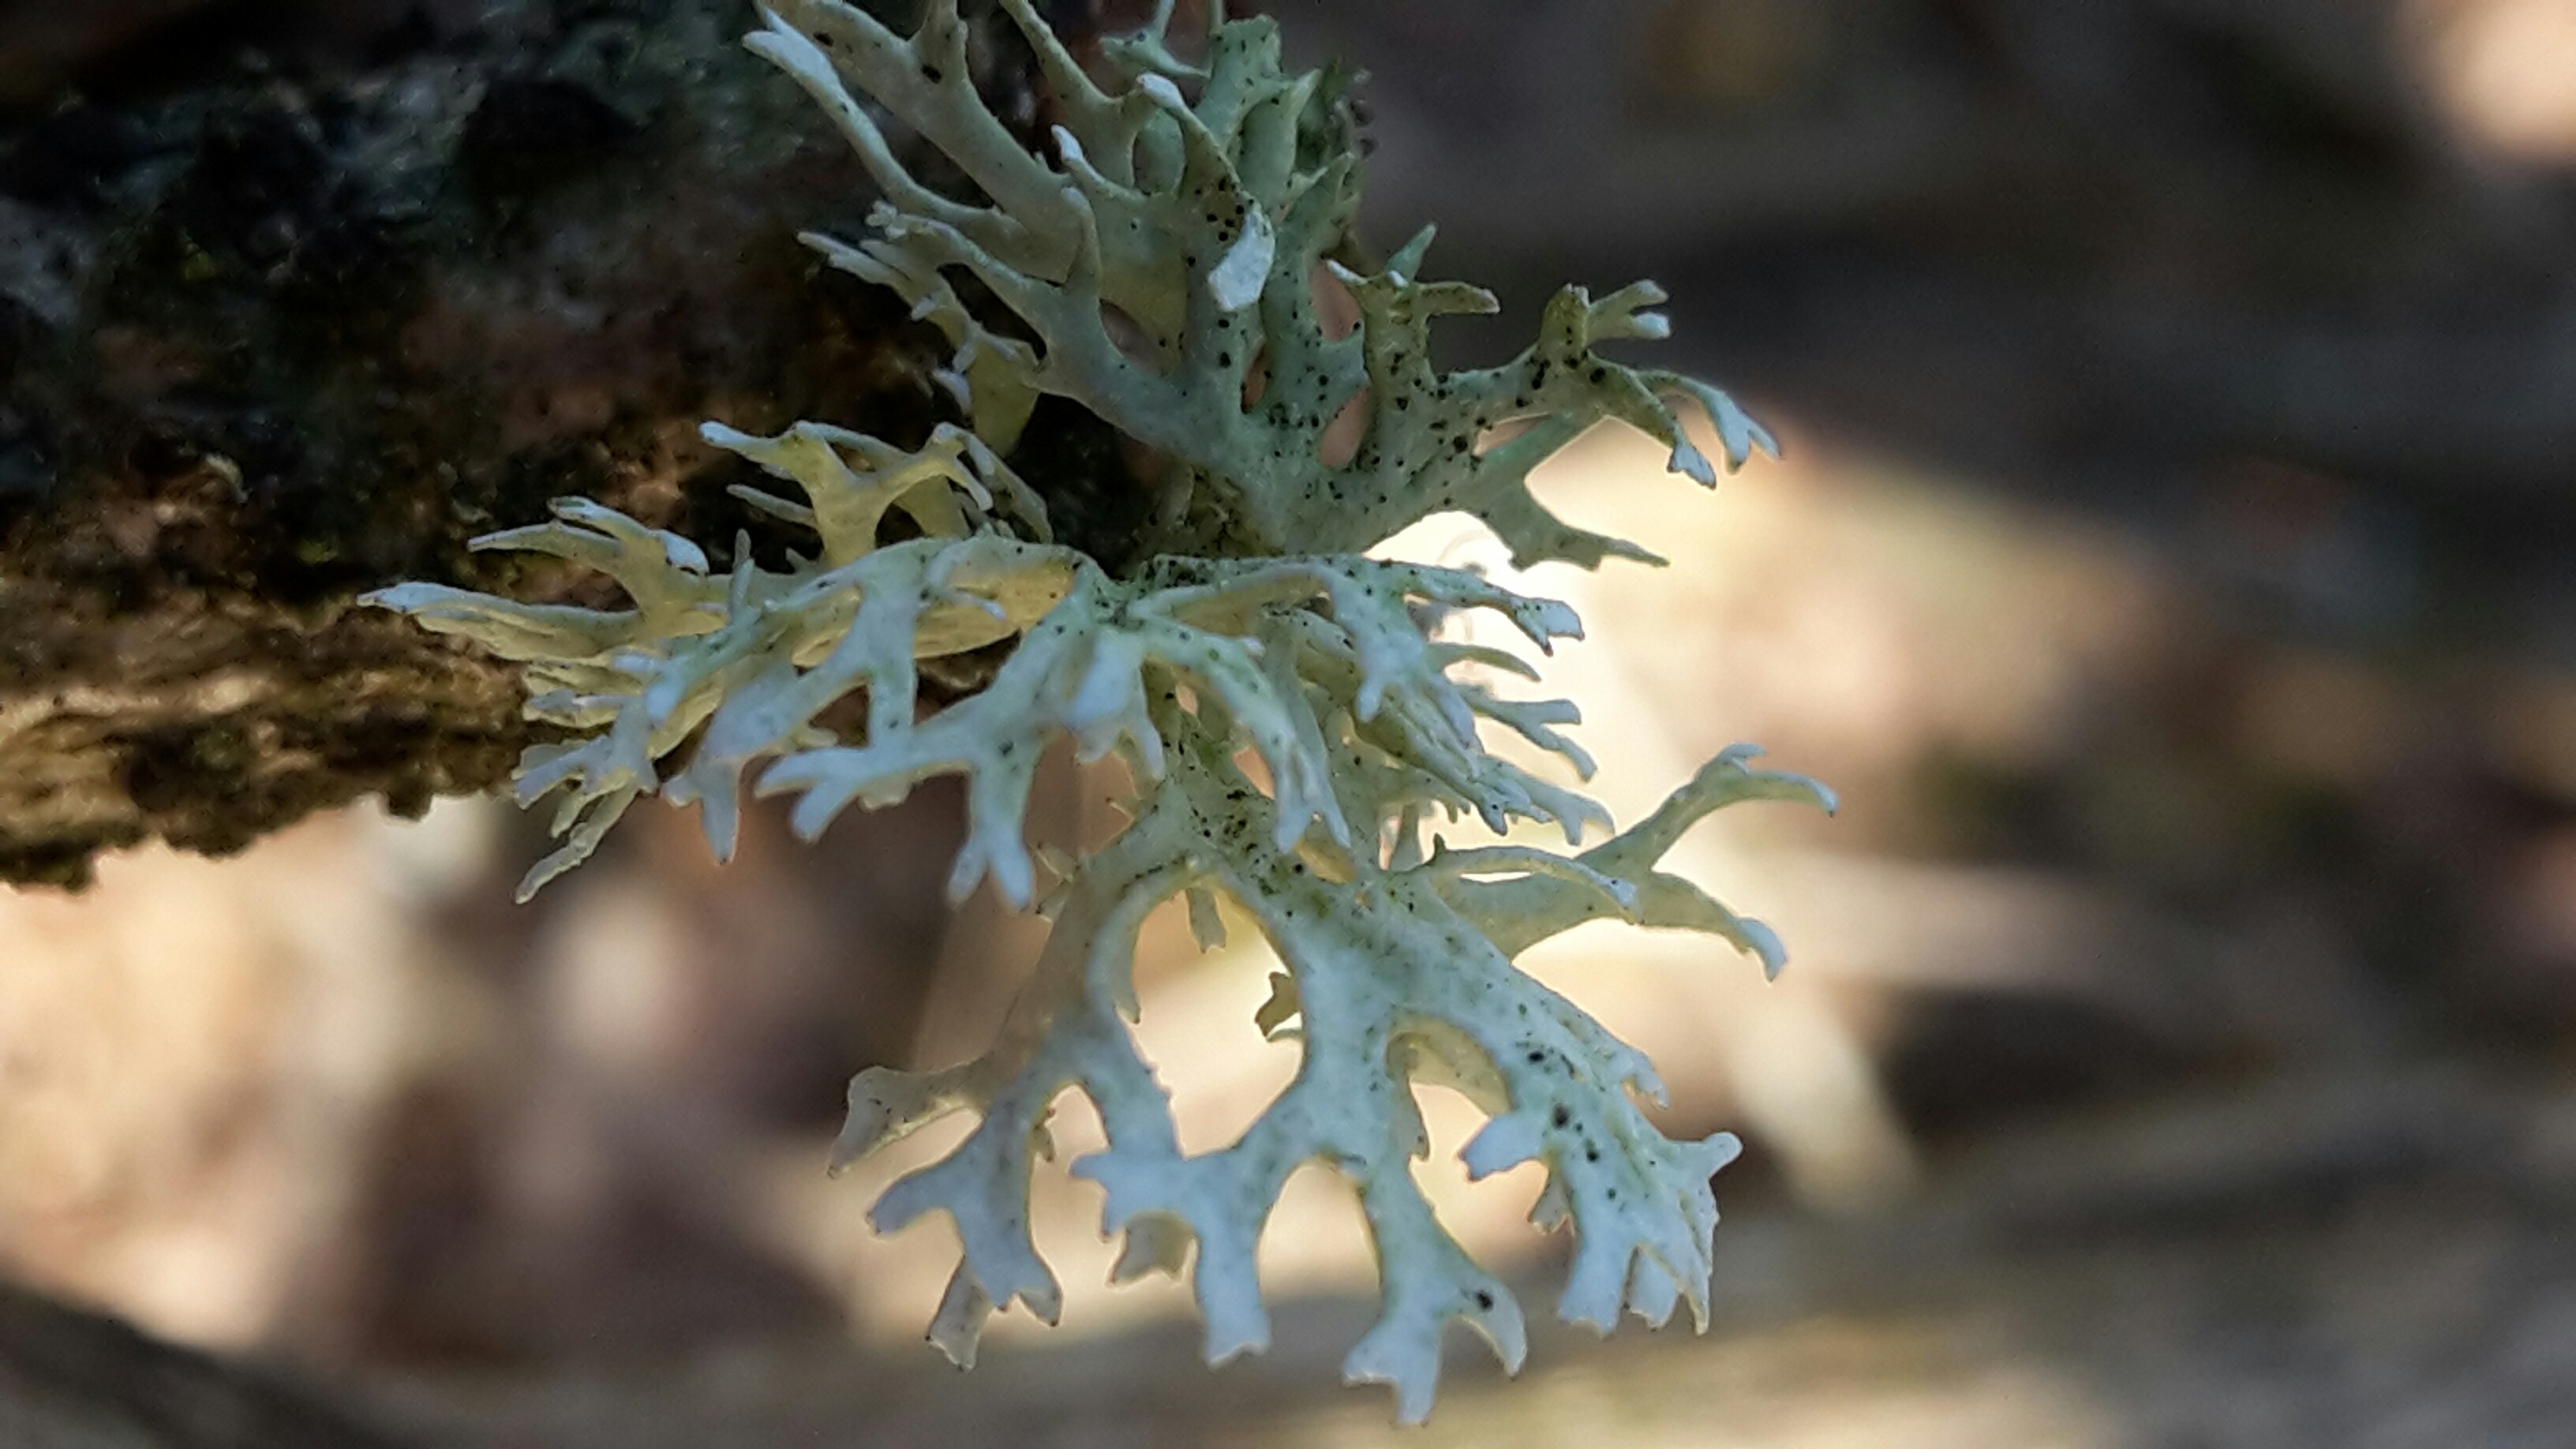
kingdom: Fungi
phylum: Ascomycota
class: Lecanoromycetes
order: Lecanorales
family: Parmeliaceae
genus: Evernia
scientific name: Evernia prunastri
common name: almindelig slåenlav
